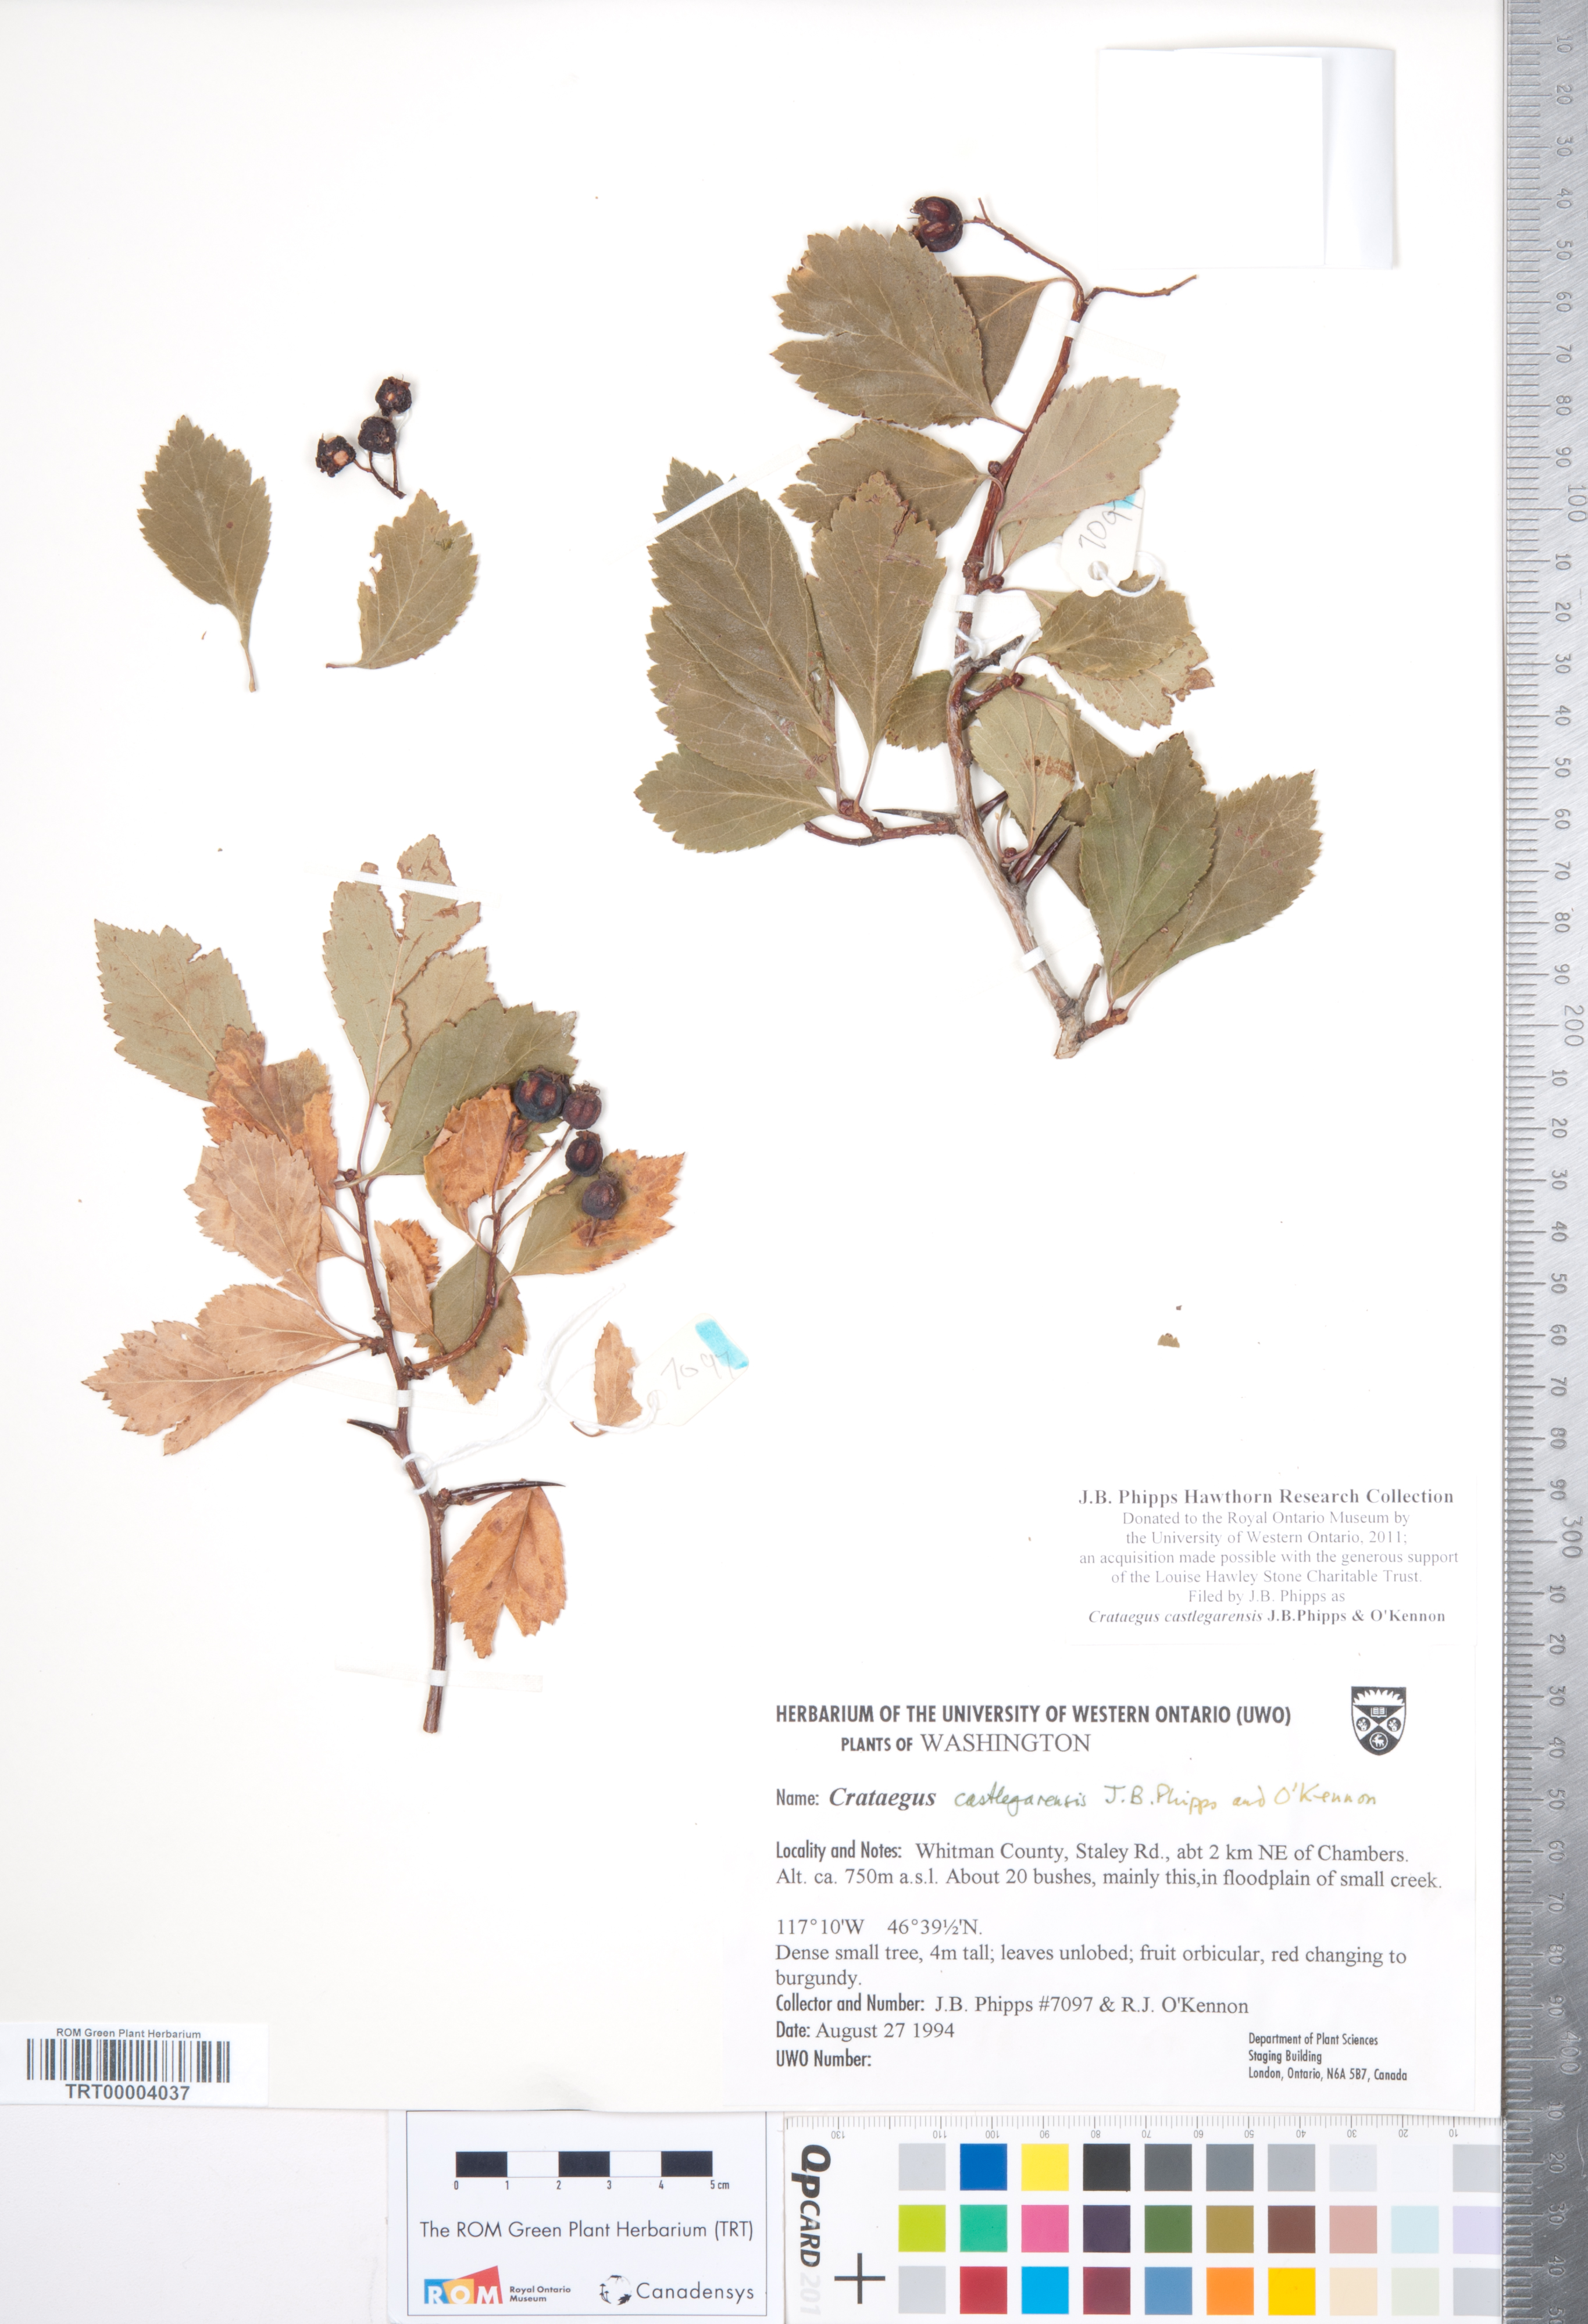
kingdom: Plantae
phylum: Tracheophyta
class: Magnoliopsida
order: Rosales
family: Rosaceae
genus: Crataegus
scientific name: Crataegus castlegarensis
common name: Castlegar hawthorn
